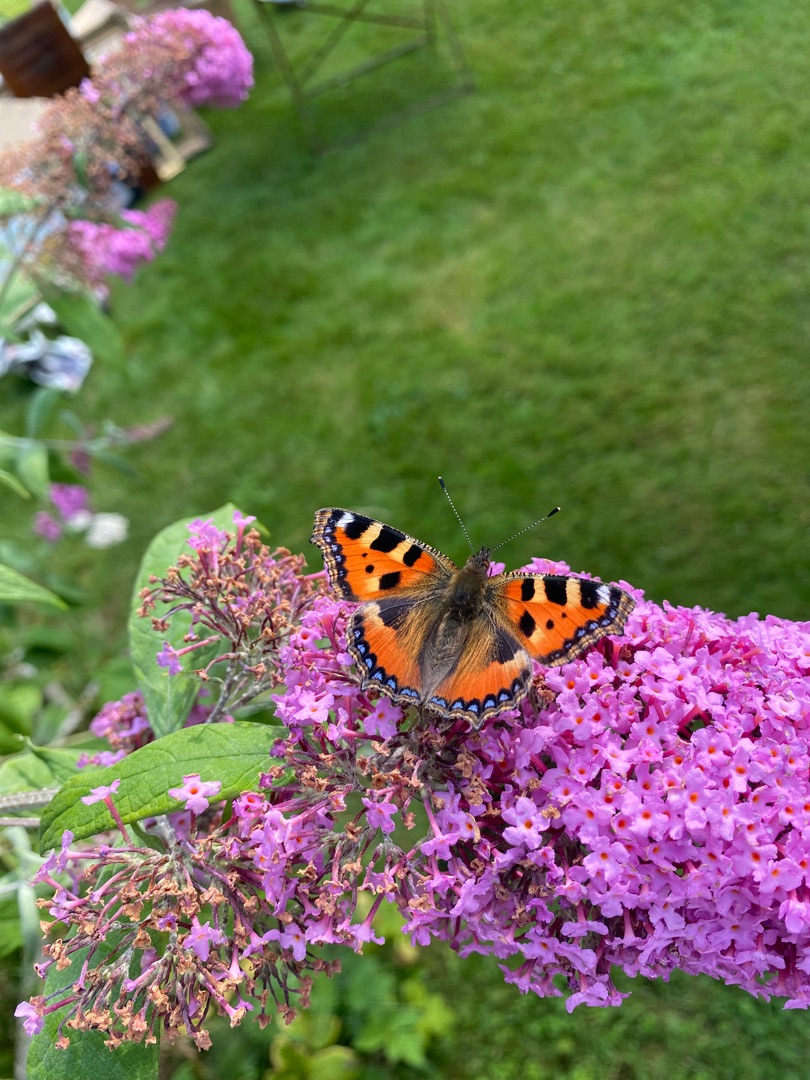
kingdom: Animalia
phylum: Arthropoda
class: Insecta
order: Lepidoptera
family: Nymphalidae
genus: Aglais
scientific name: Aglais urticae
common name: Nældens takvinge
